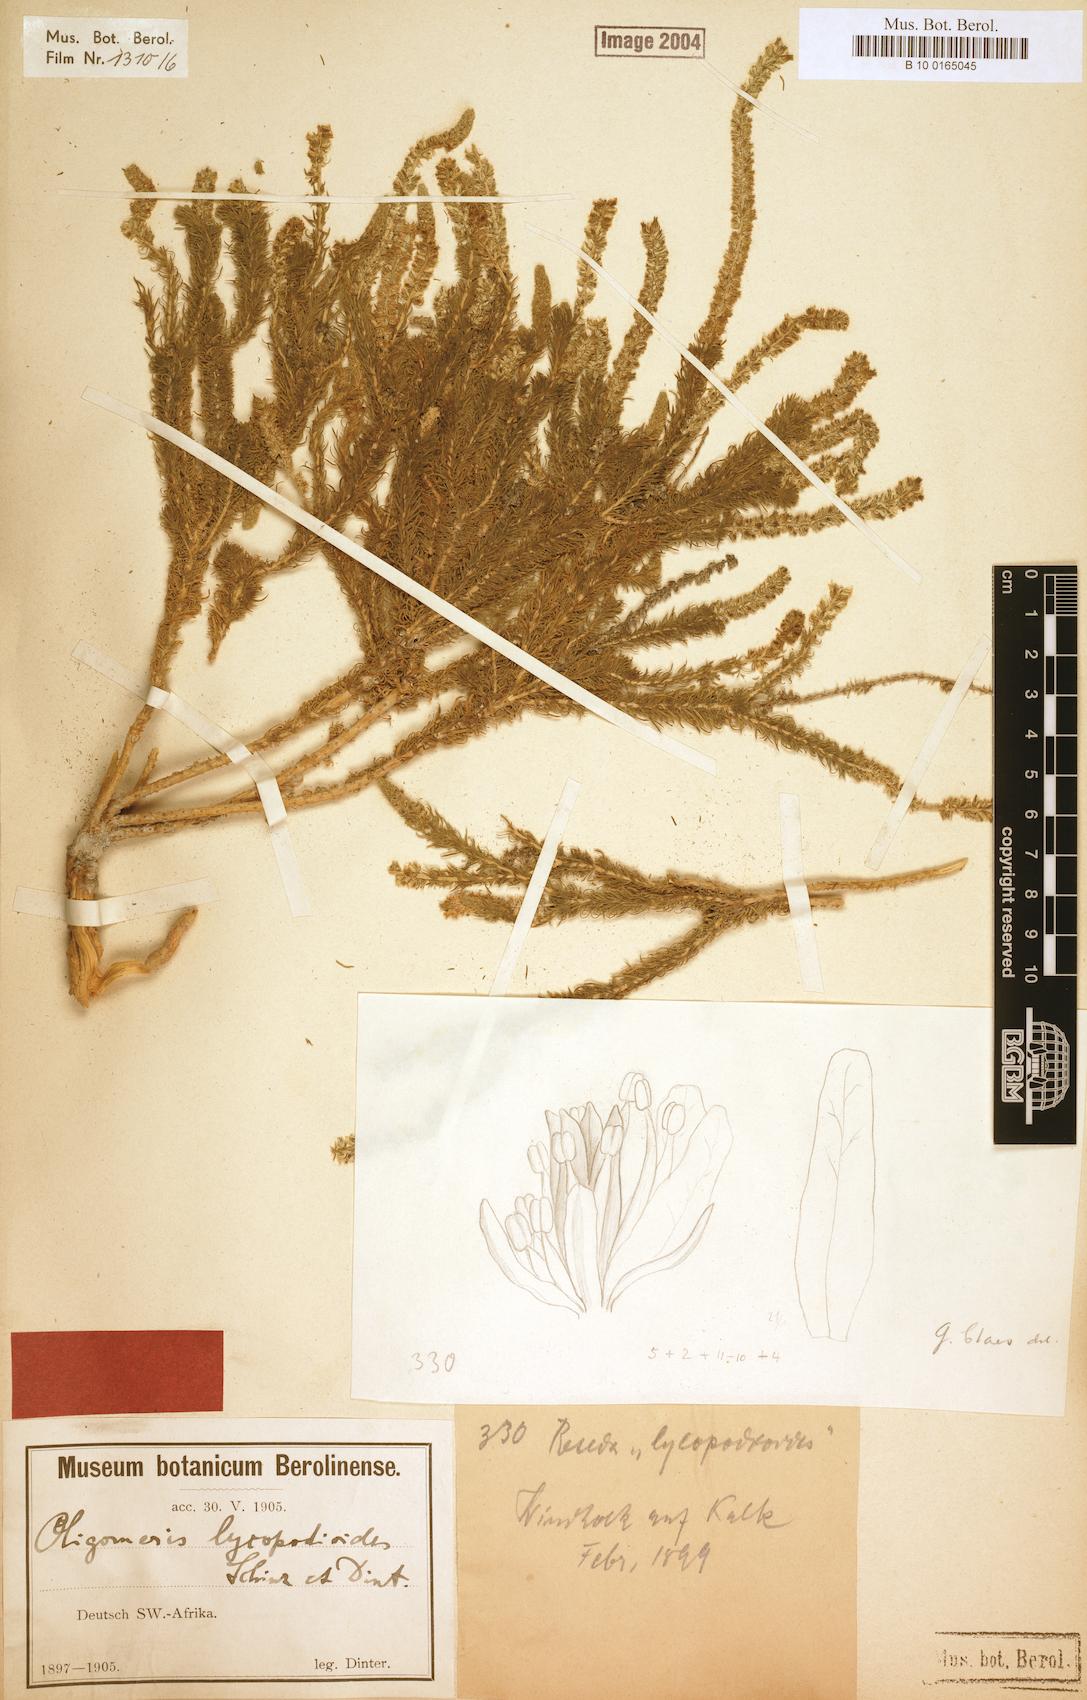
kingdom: Plantae
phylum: Tracheophyta
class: Magnoliopsida
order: Brassicales
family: Resedaceae
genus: Oligomeris
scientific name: Oligomeris dipetala
